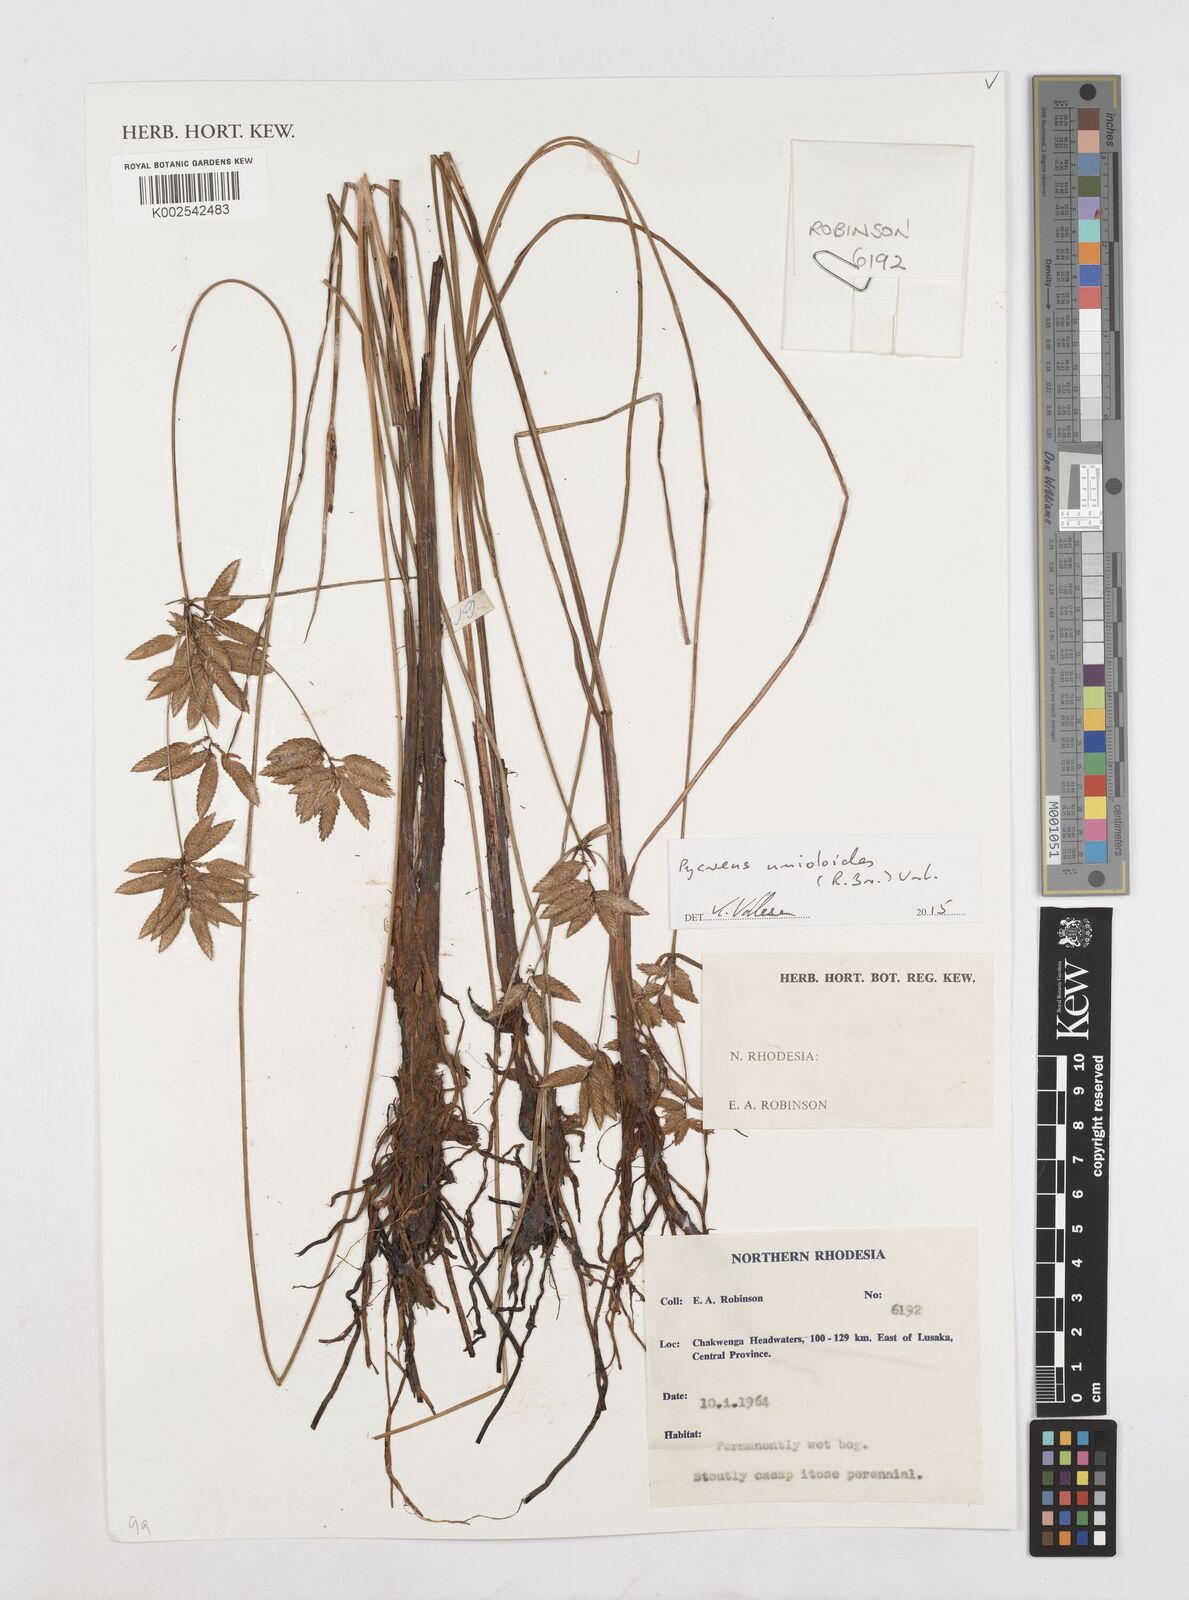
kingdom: Plantae
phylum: Tracheophyta
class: Liliopsida
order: Poales
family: Cyperaceae
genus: Cyperus
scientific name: Cyperus unioloides
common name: Uniola flatsedge
